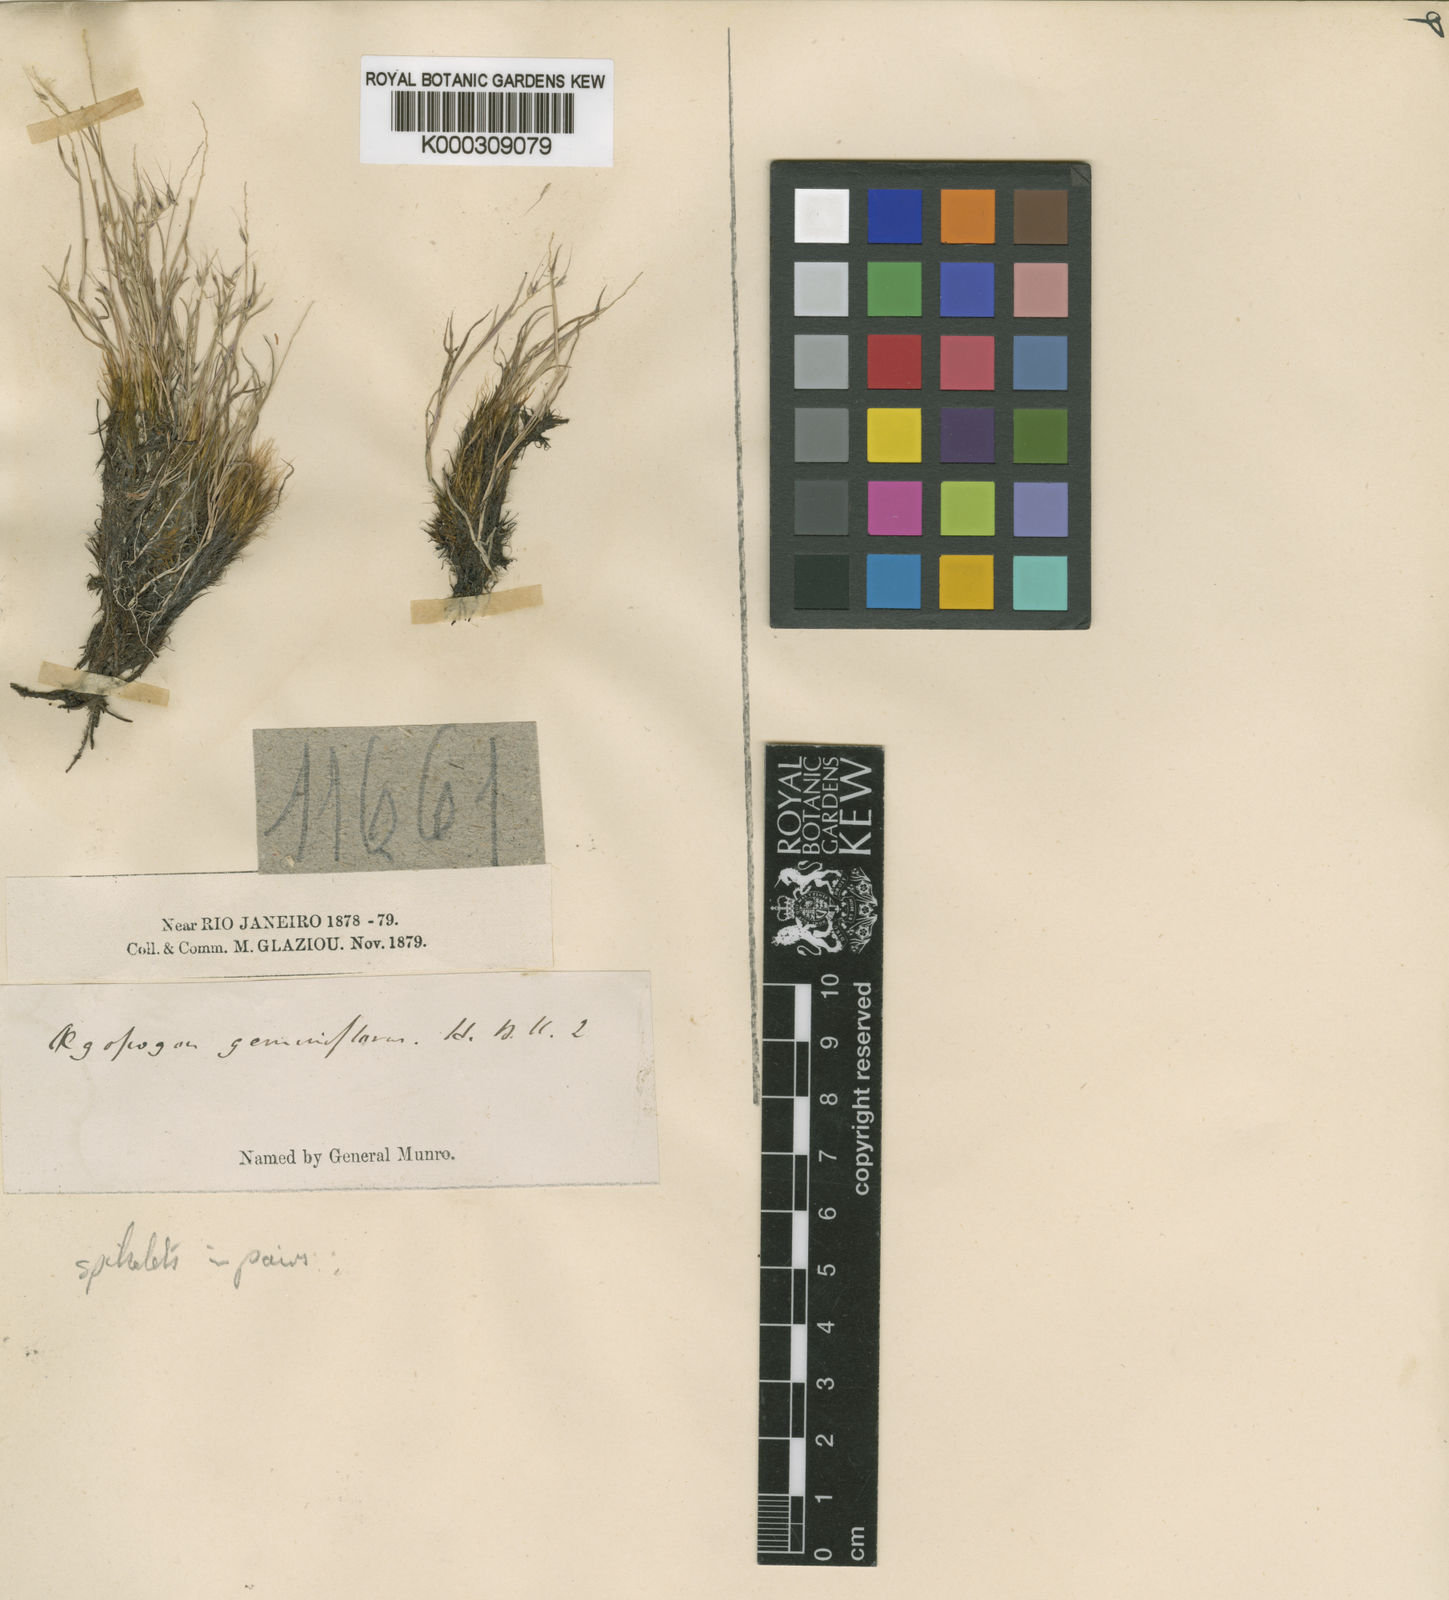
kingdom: Plantae
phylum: Tracheophyta
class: Liliopsida
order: Poales
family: Poaceae
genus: Muhlenbergia
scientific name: Muhlenbergia
